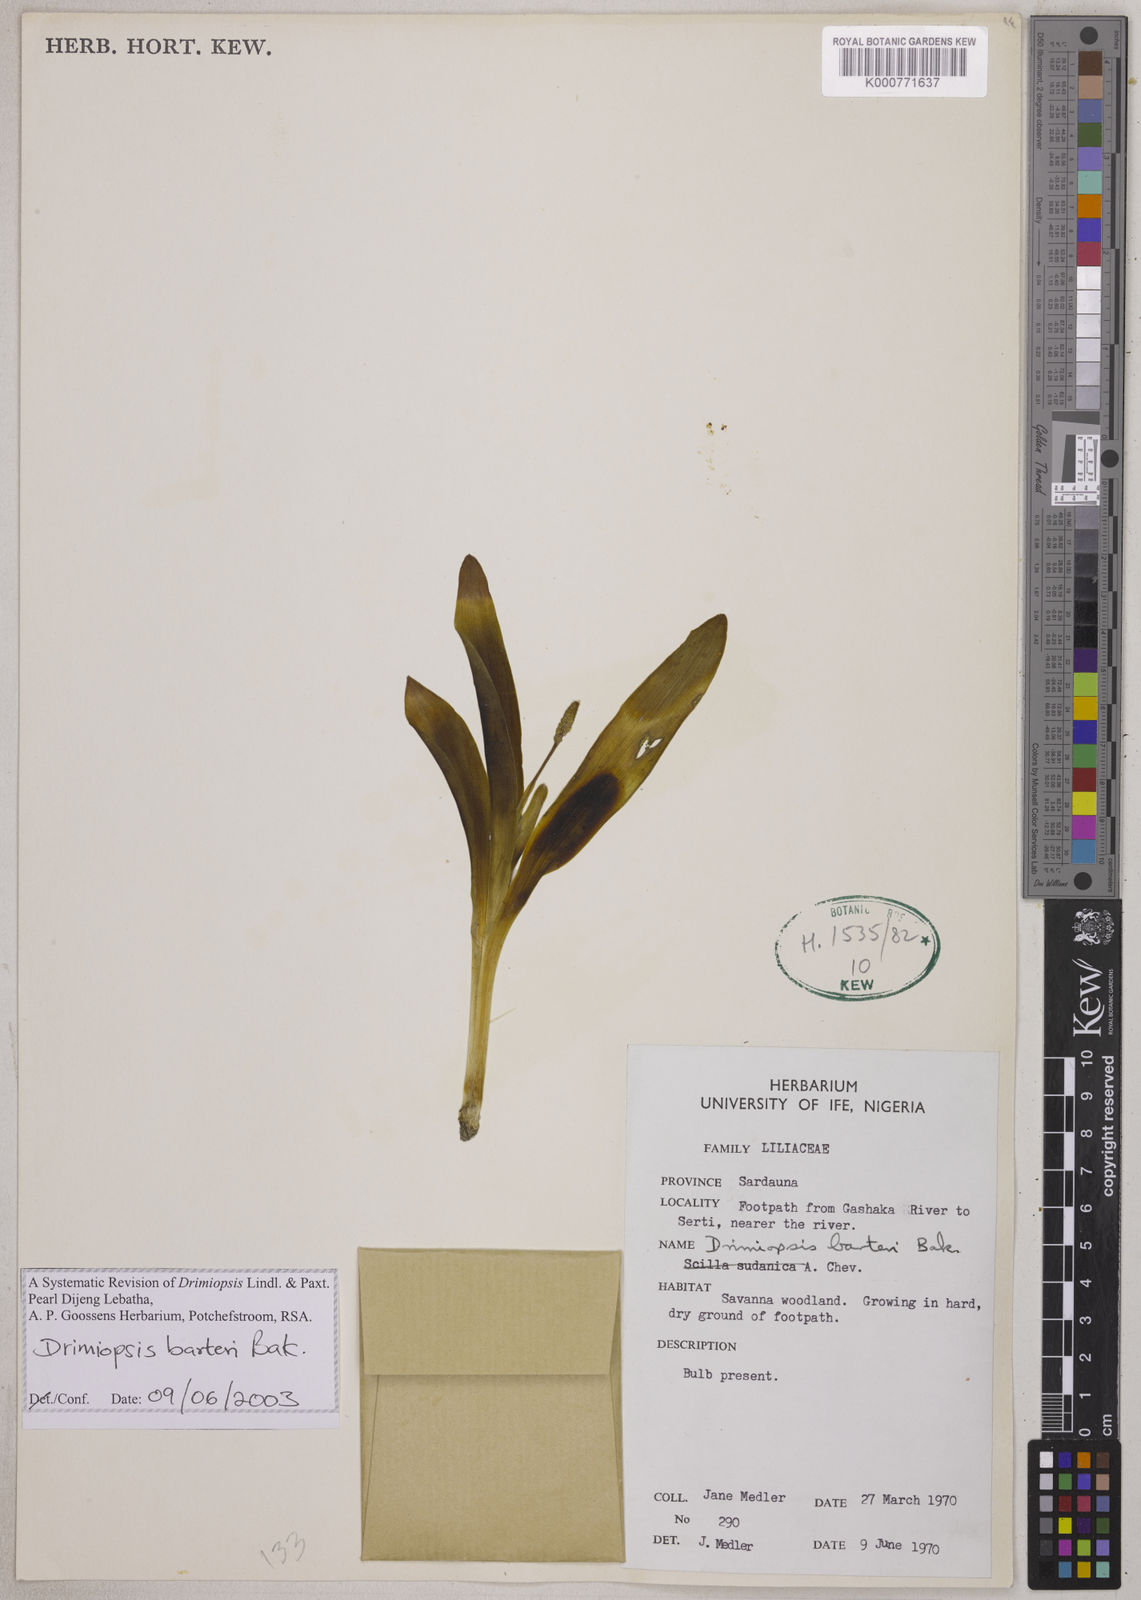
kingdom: Plantae
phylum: Tracheophyta
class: Liliopsida
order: Asparagales
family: Asparagaceae
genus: Drimiopsis
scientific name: Drimiopsis barteri
